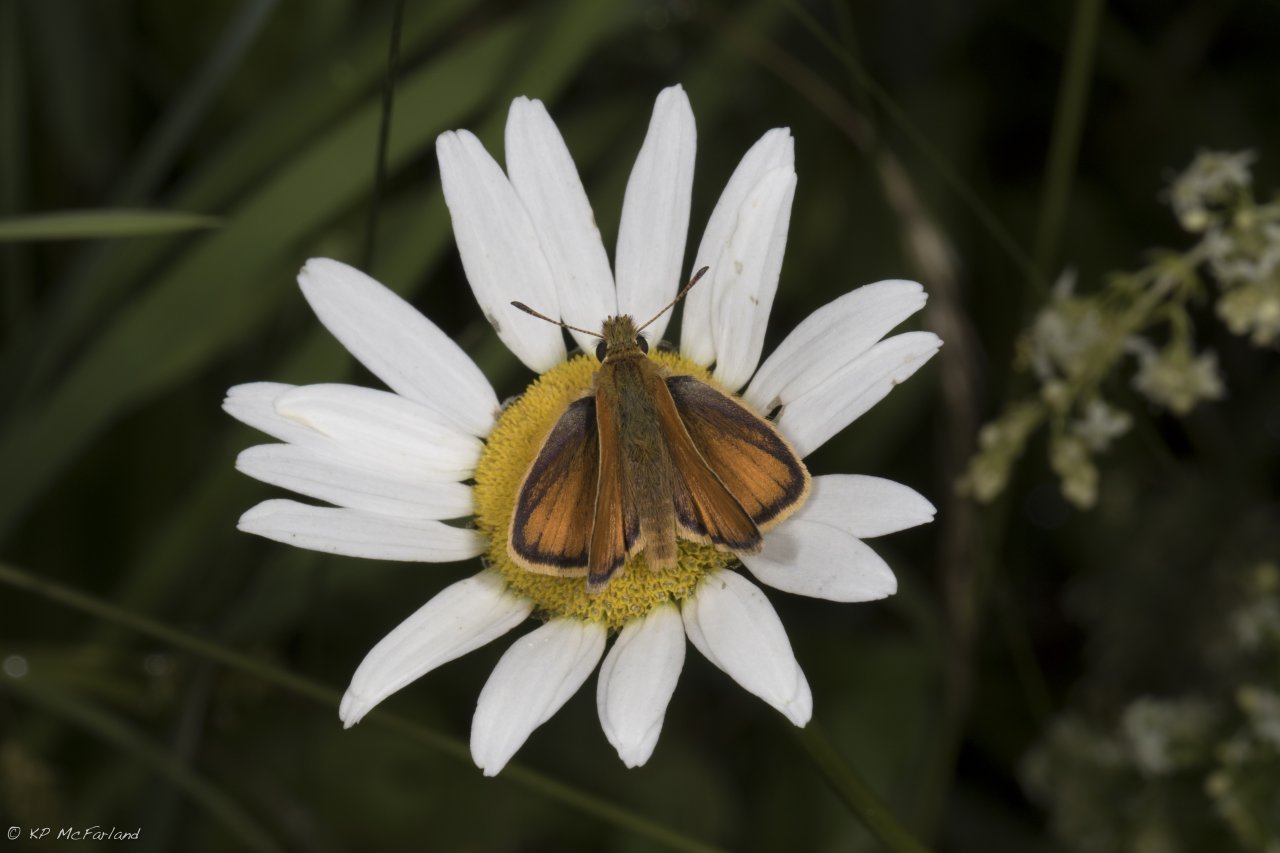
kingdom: Animalia
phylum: Arthropoda
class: Insecta
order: Lepidoptera
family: Hesperiidae
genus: Thymelicus
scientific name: Thymelicus lineola
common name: European Skipper
